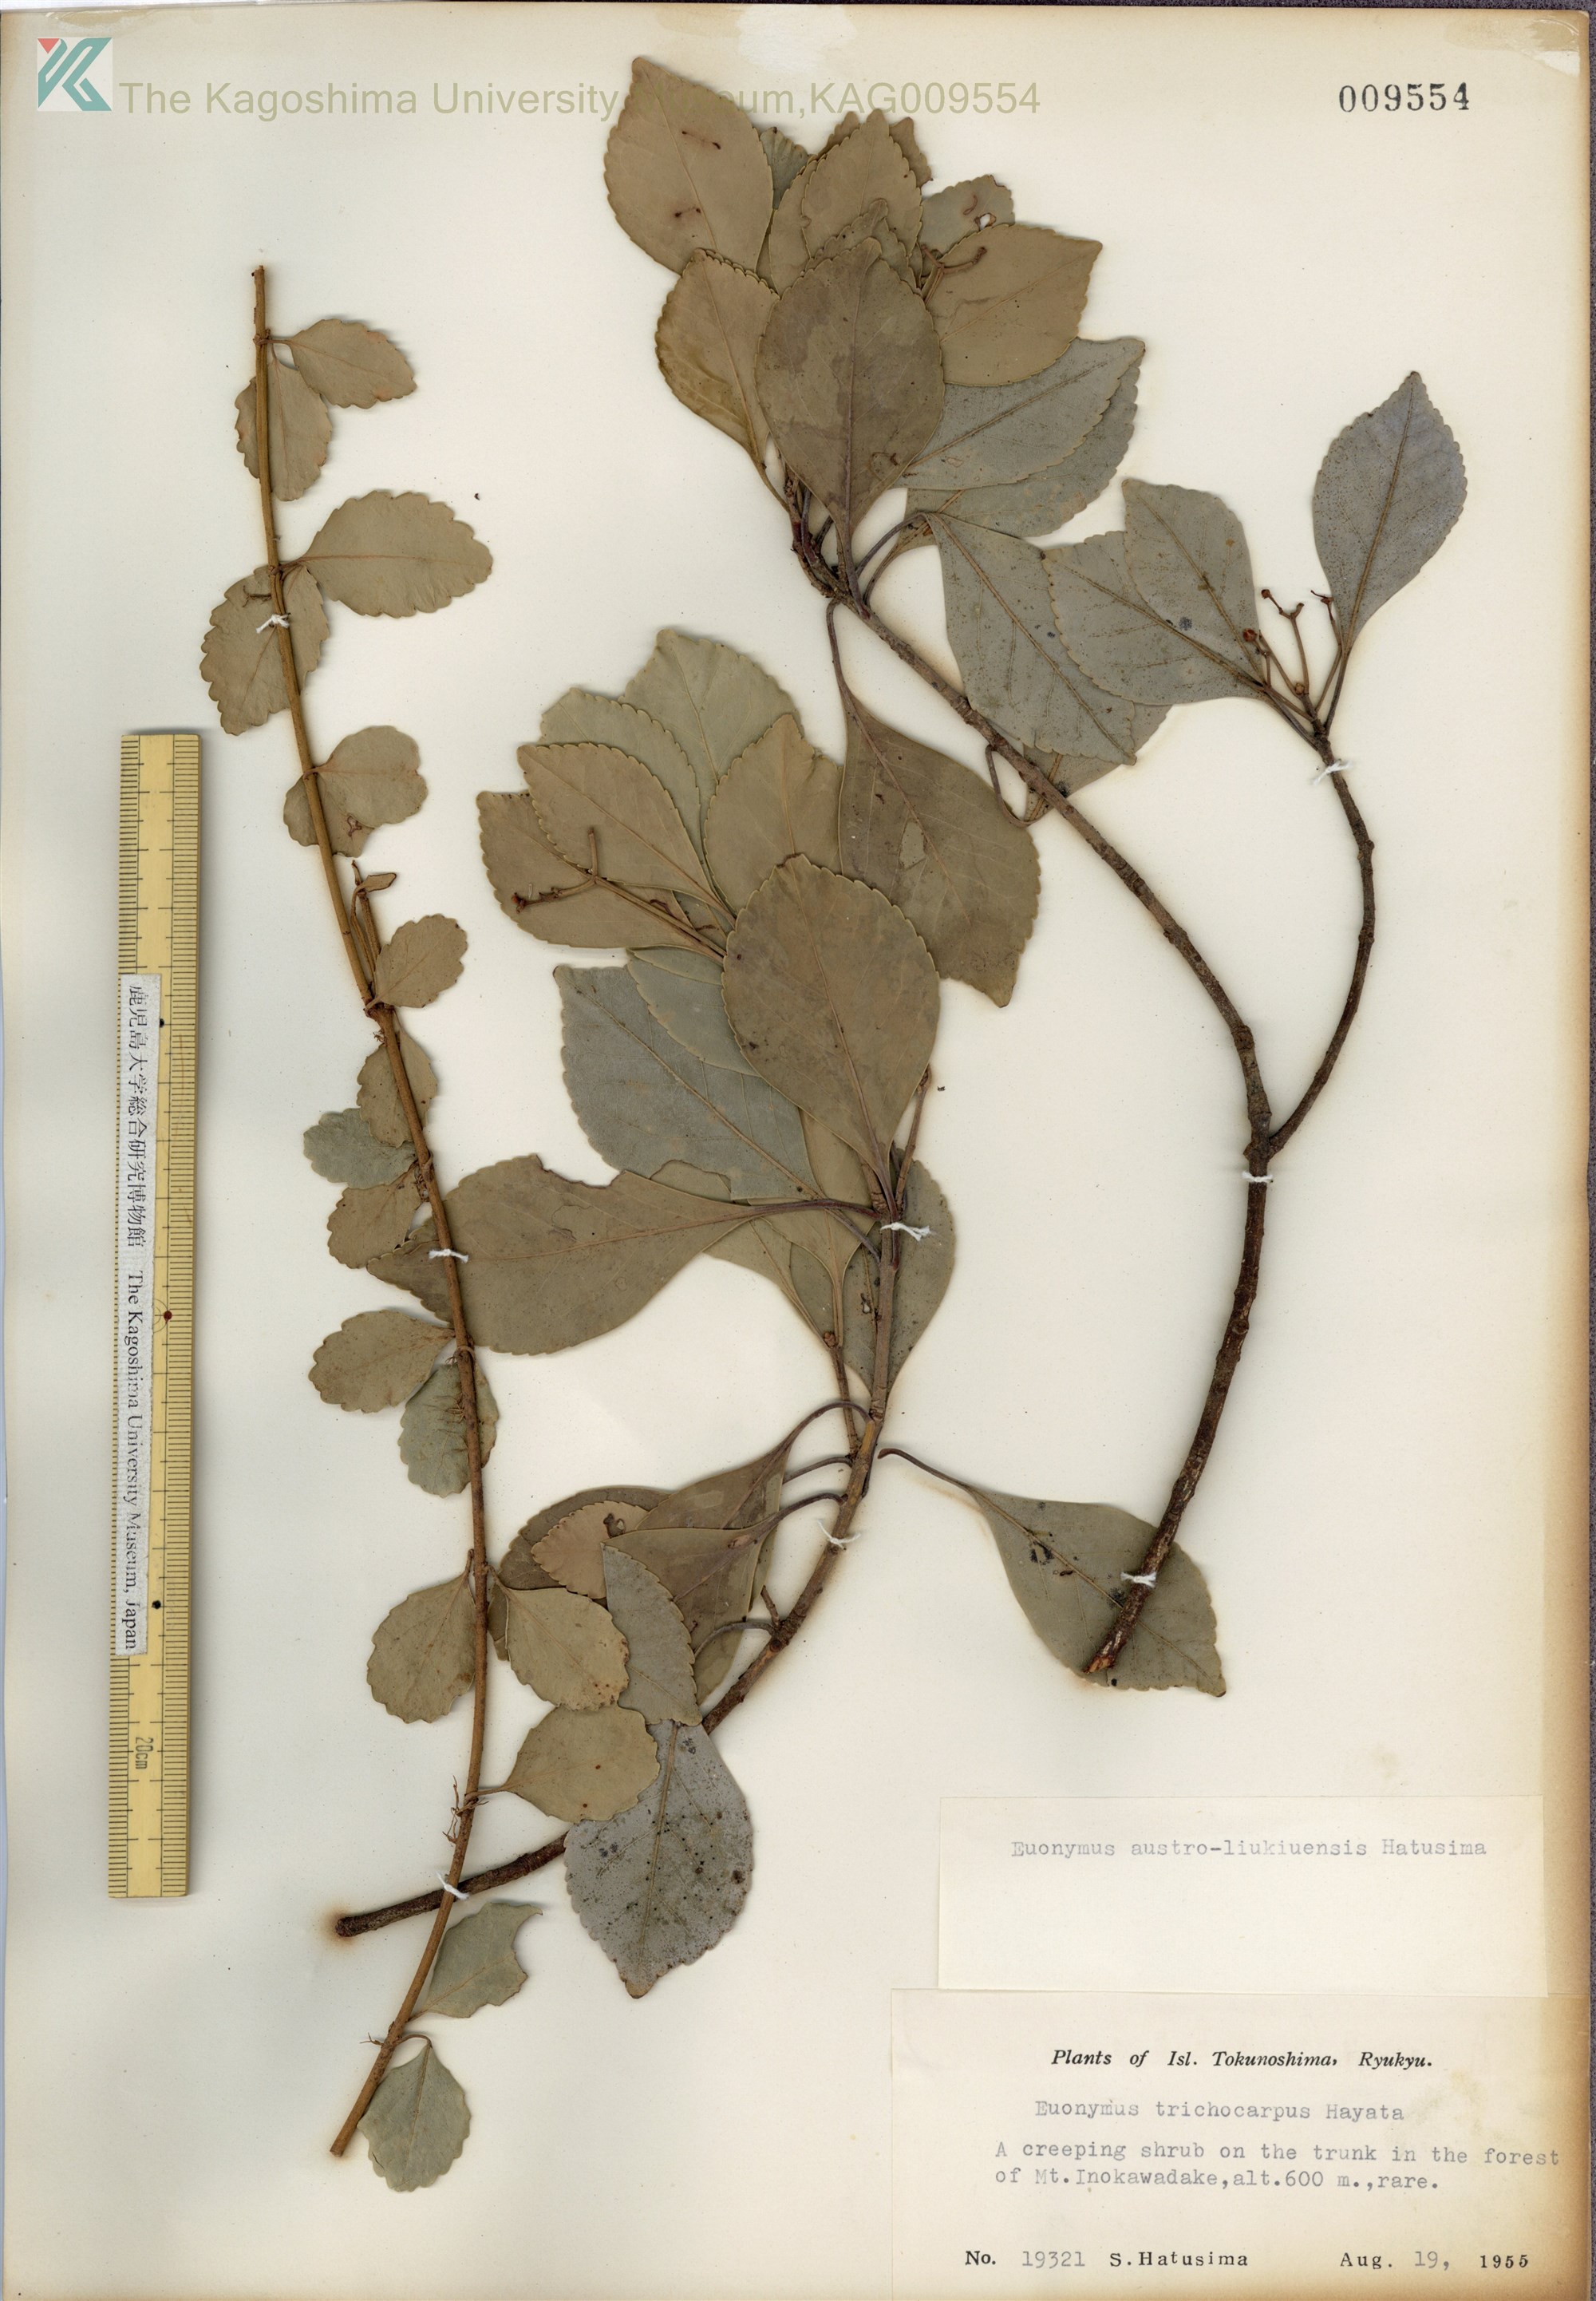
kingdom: Plantae
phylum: Tracheophyta
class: Magnoliopsida
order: Celastrales
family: Celastraceae
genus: Euonymus
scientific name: Euonymus fortunei
